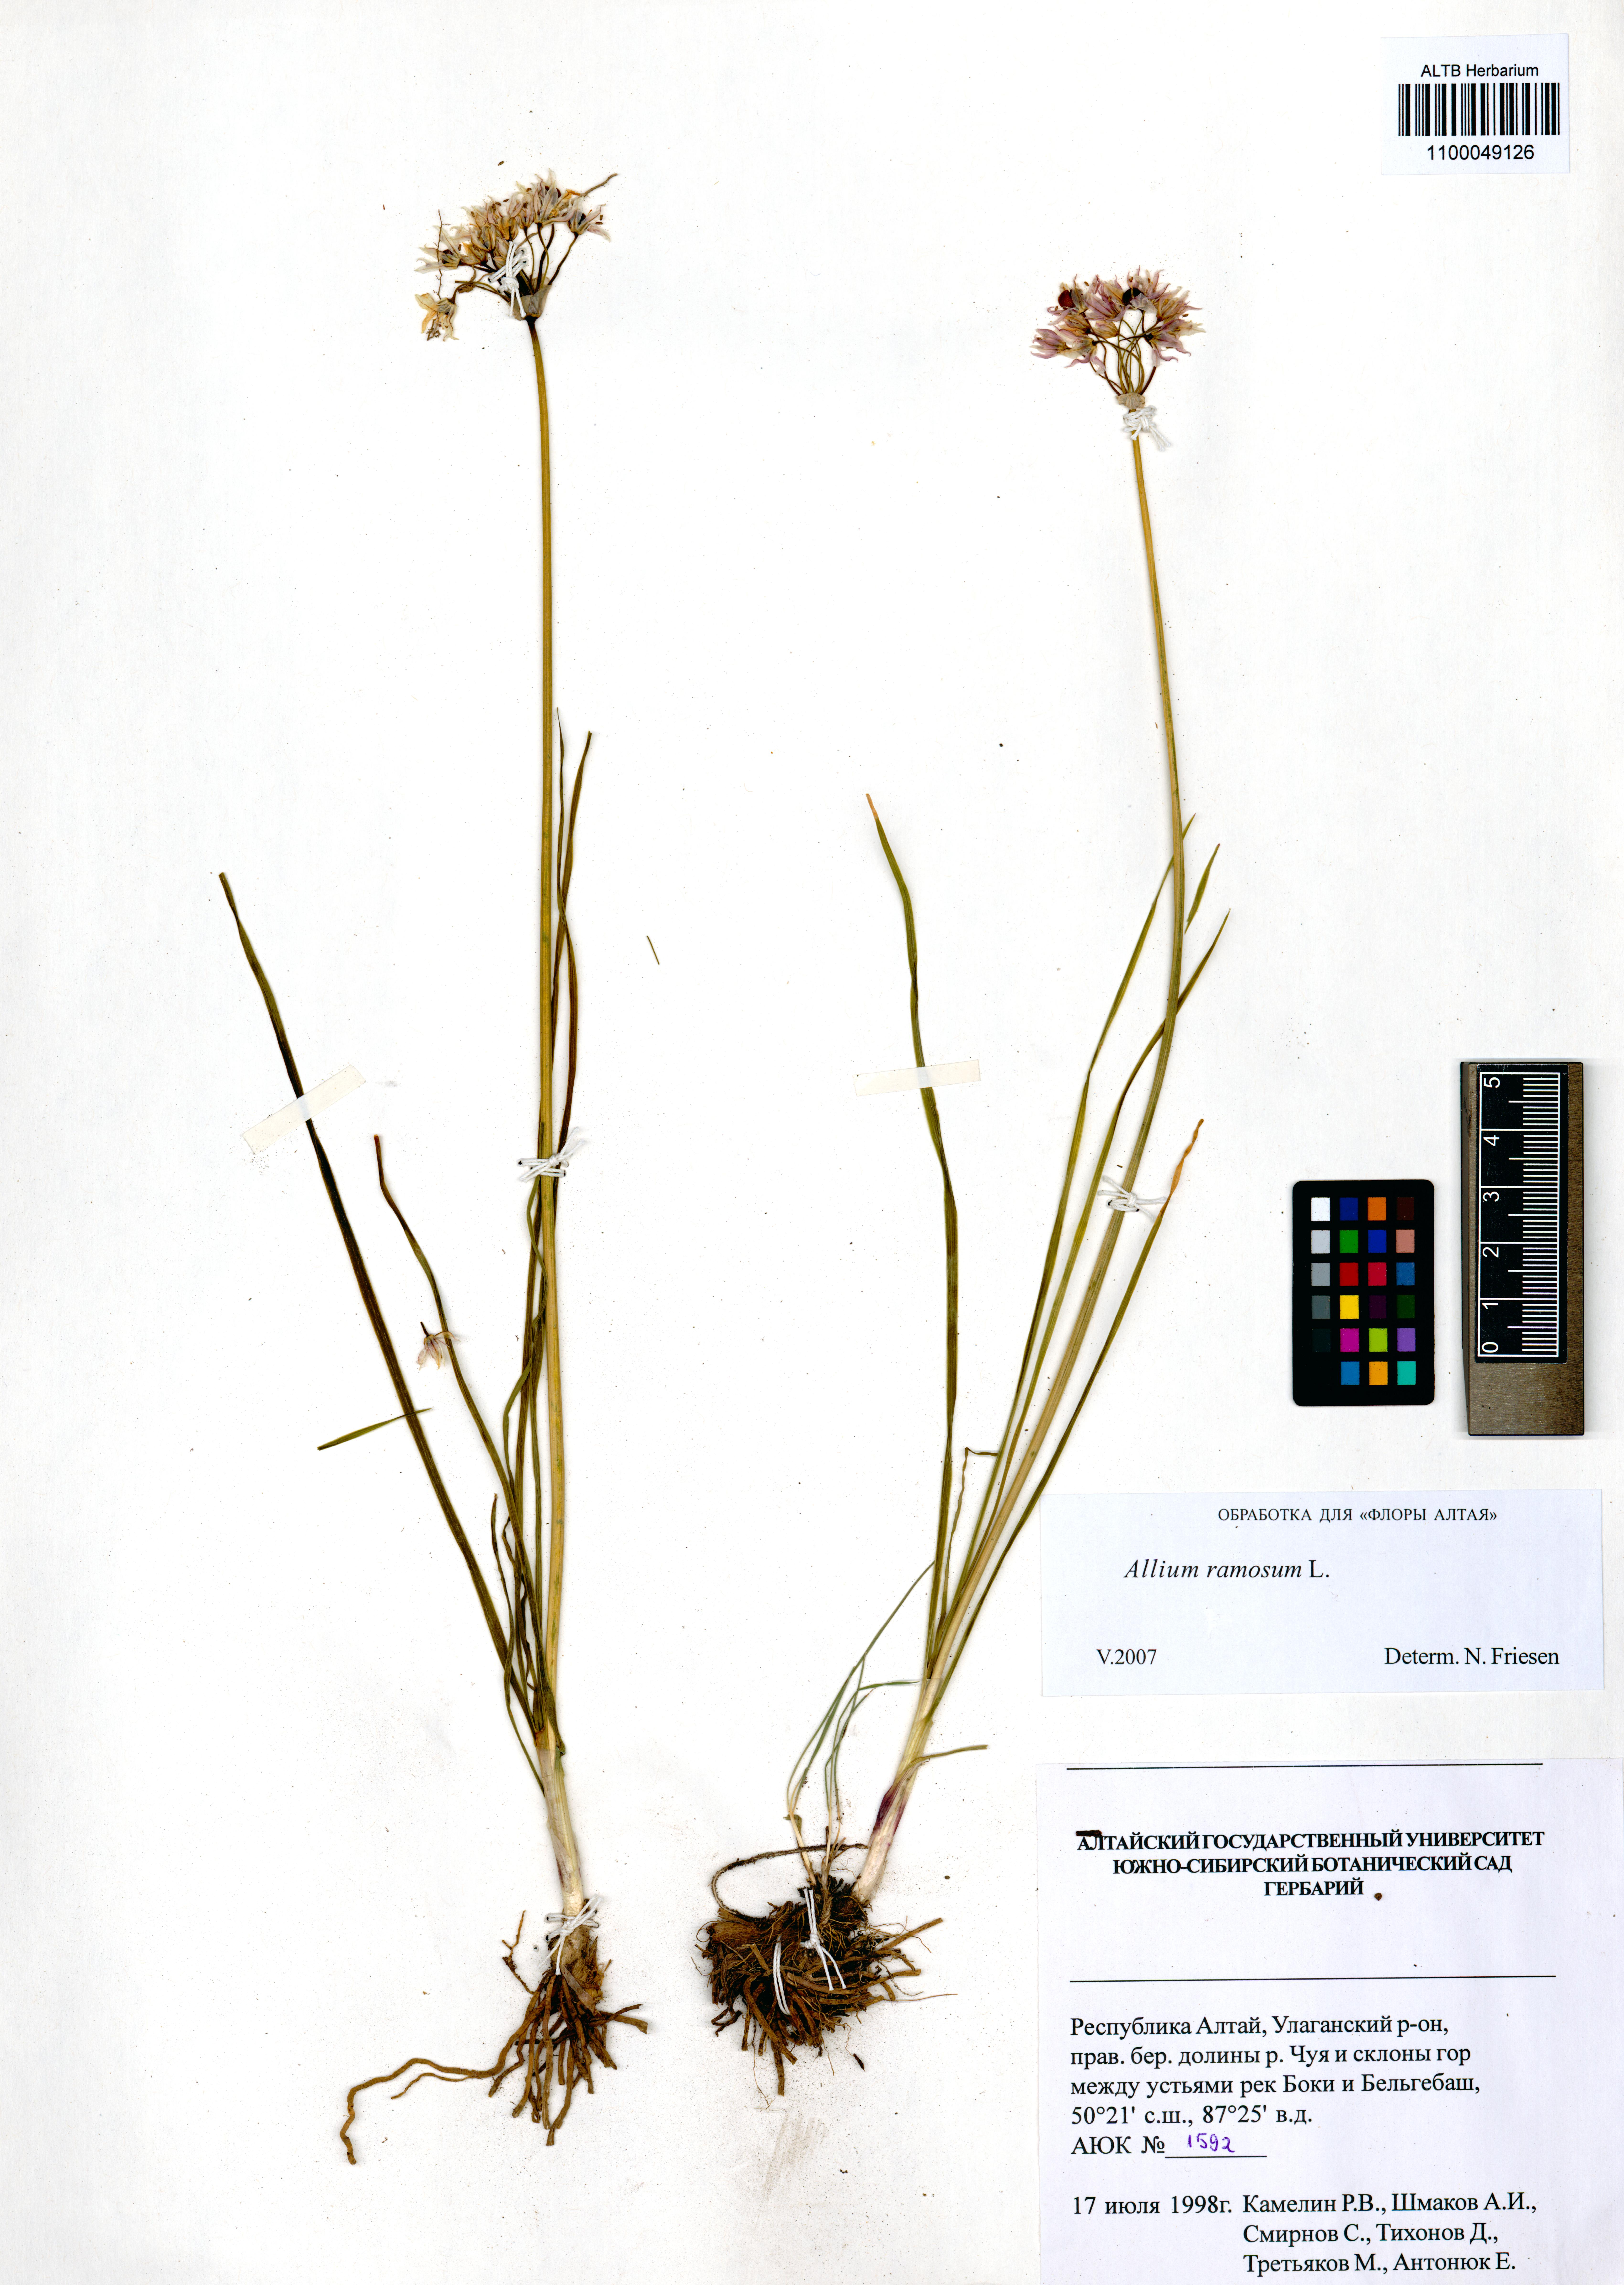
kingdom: Plantae
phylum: Tracheophyta
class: Liliopsida
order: Asparagales
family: Amaryllidaceae
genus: Allium
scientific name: Allium ramosum
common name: Fragrant garlic
